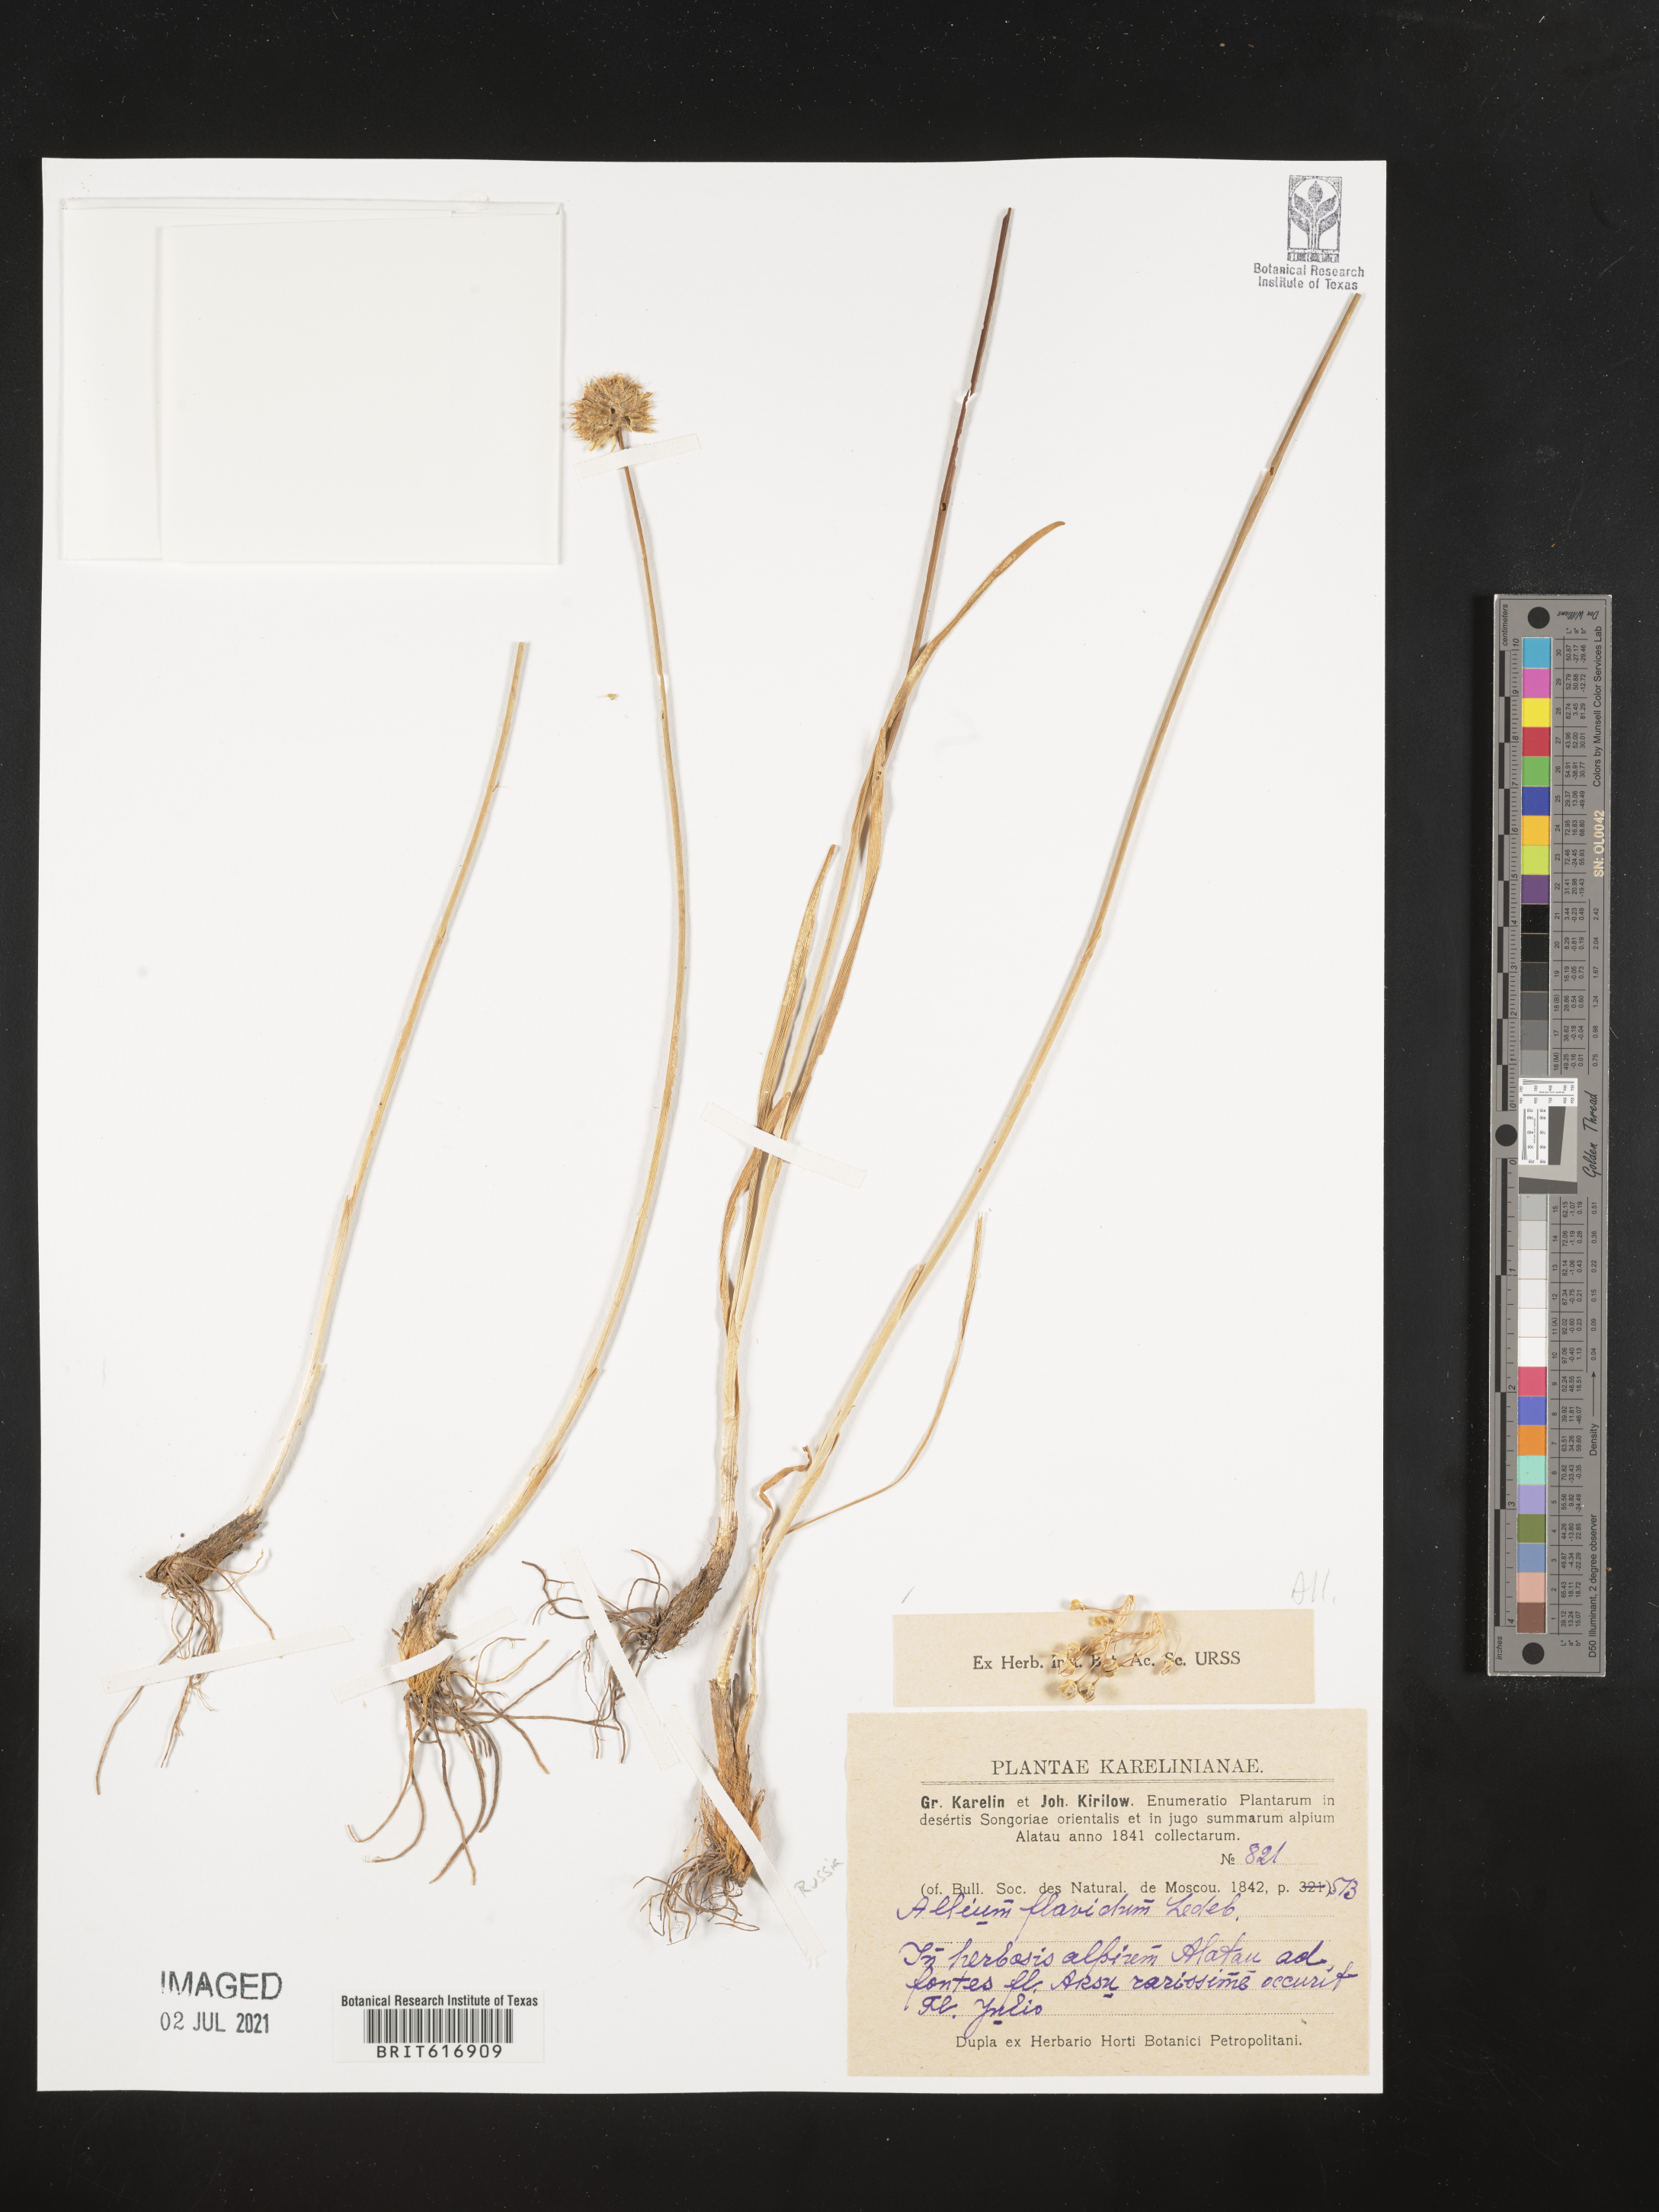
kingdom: Plantae
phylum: Tracheophyta
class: Liliopsida
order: Asparagales
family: Amaryllidaceae
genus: Allium
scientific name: Allium flavidum
